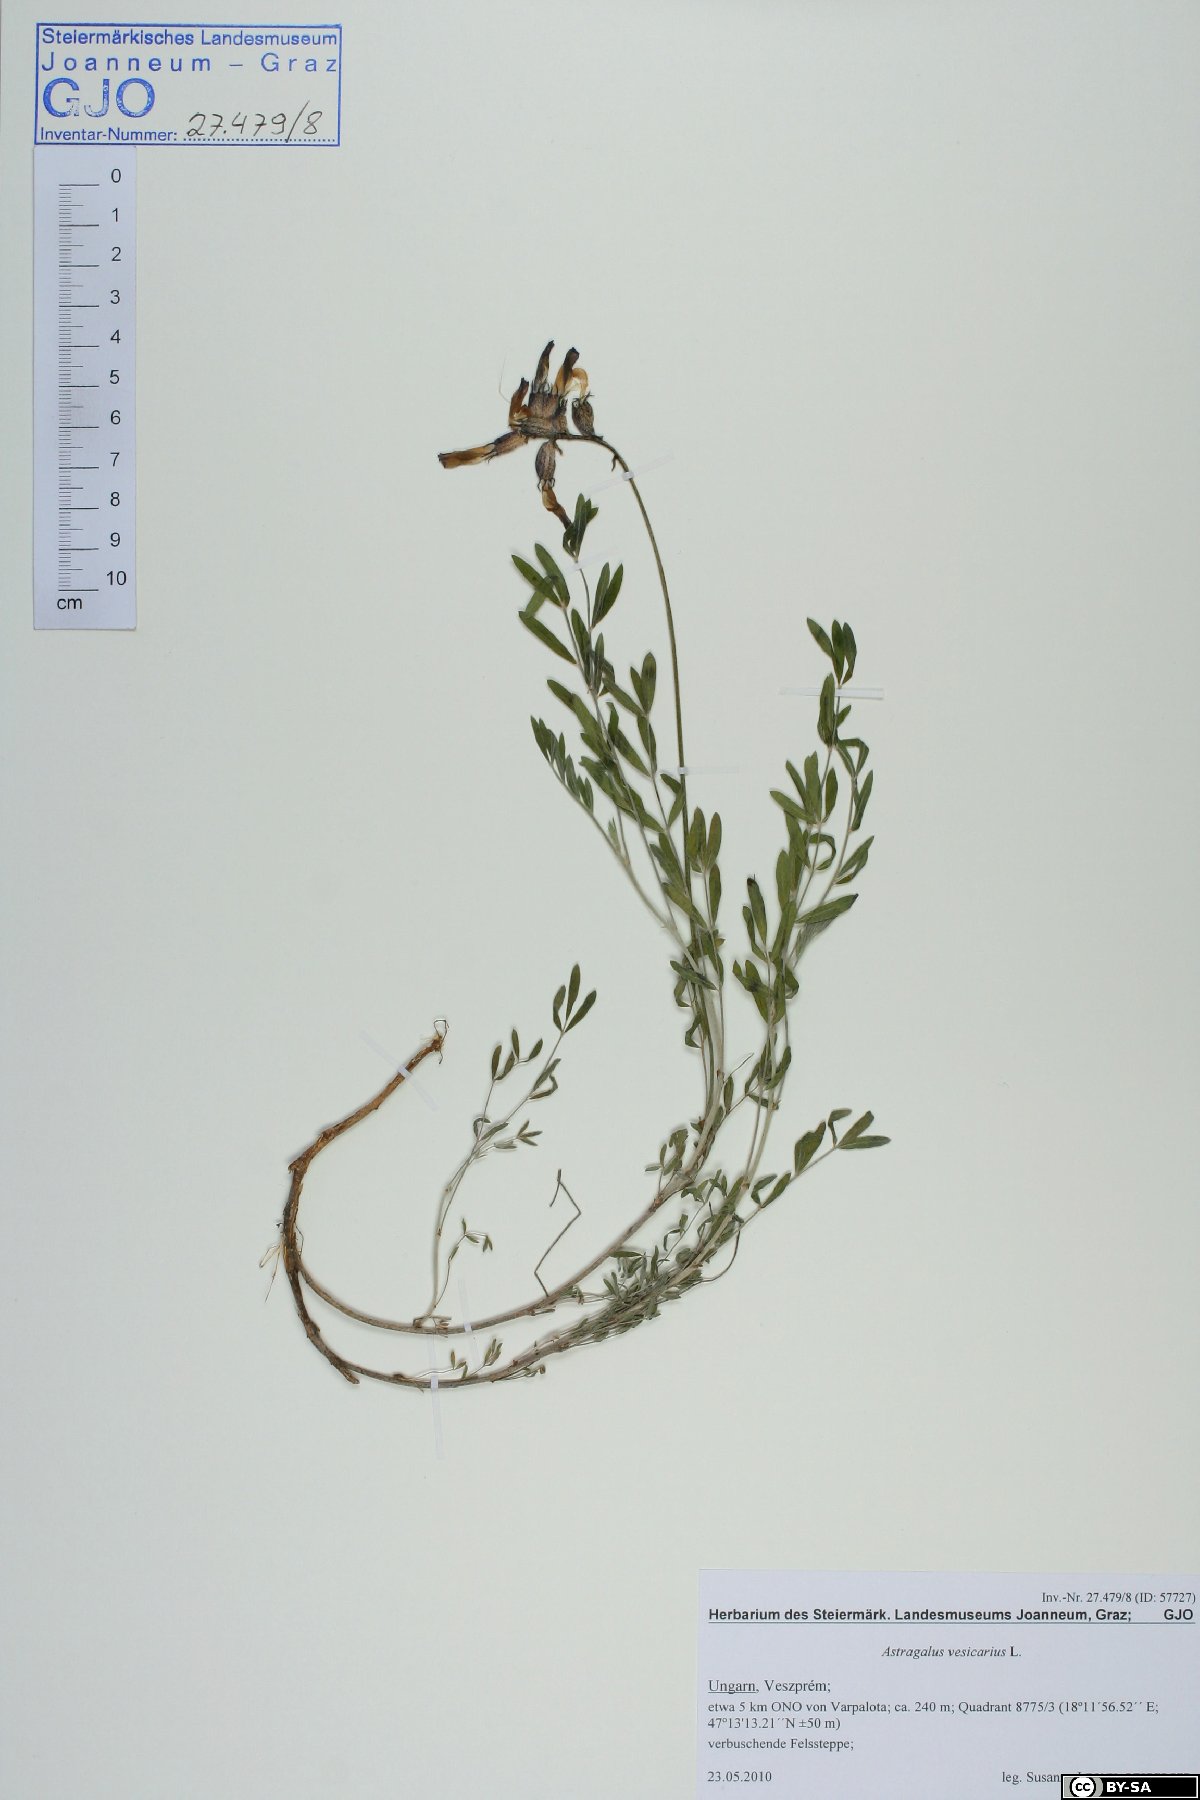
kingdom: Plantae
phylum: Tracheophyta
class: Magnoliopsida
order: Fabales
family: Fabaceae
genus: Astragalus
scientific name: Astragalus vesicarius
